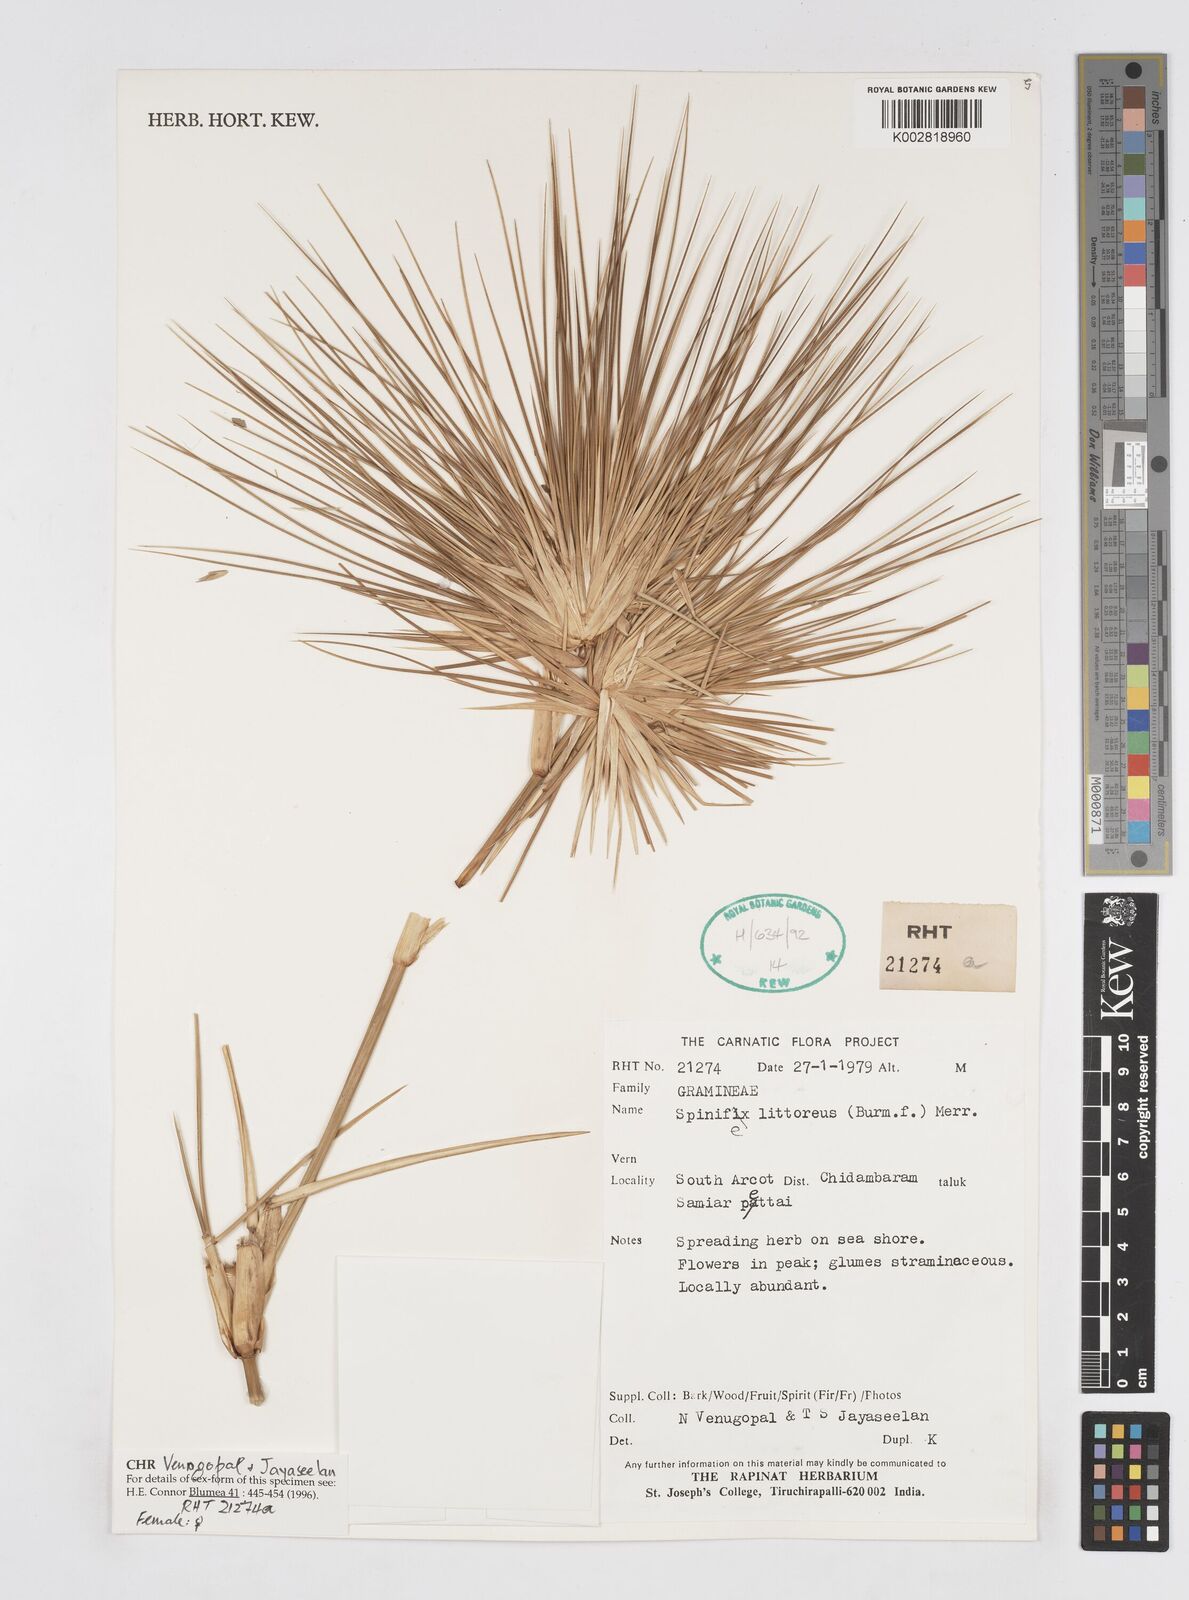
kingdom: Plantae
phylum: Tracheophyta
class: Liliopsida
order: Poales
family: Poaceae
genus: Spinifex
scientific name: Spinifex littoreus
